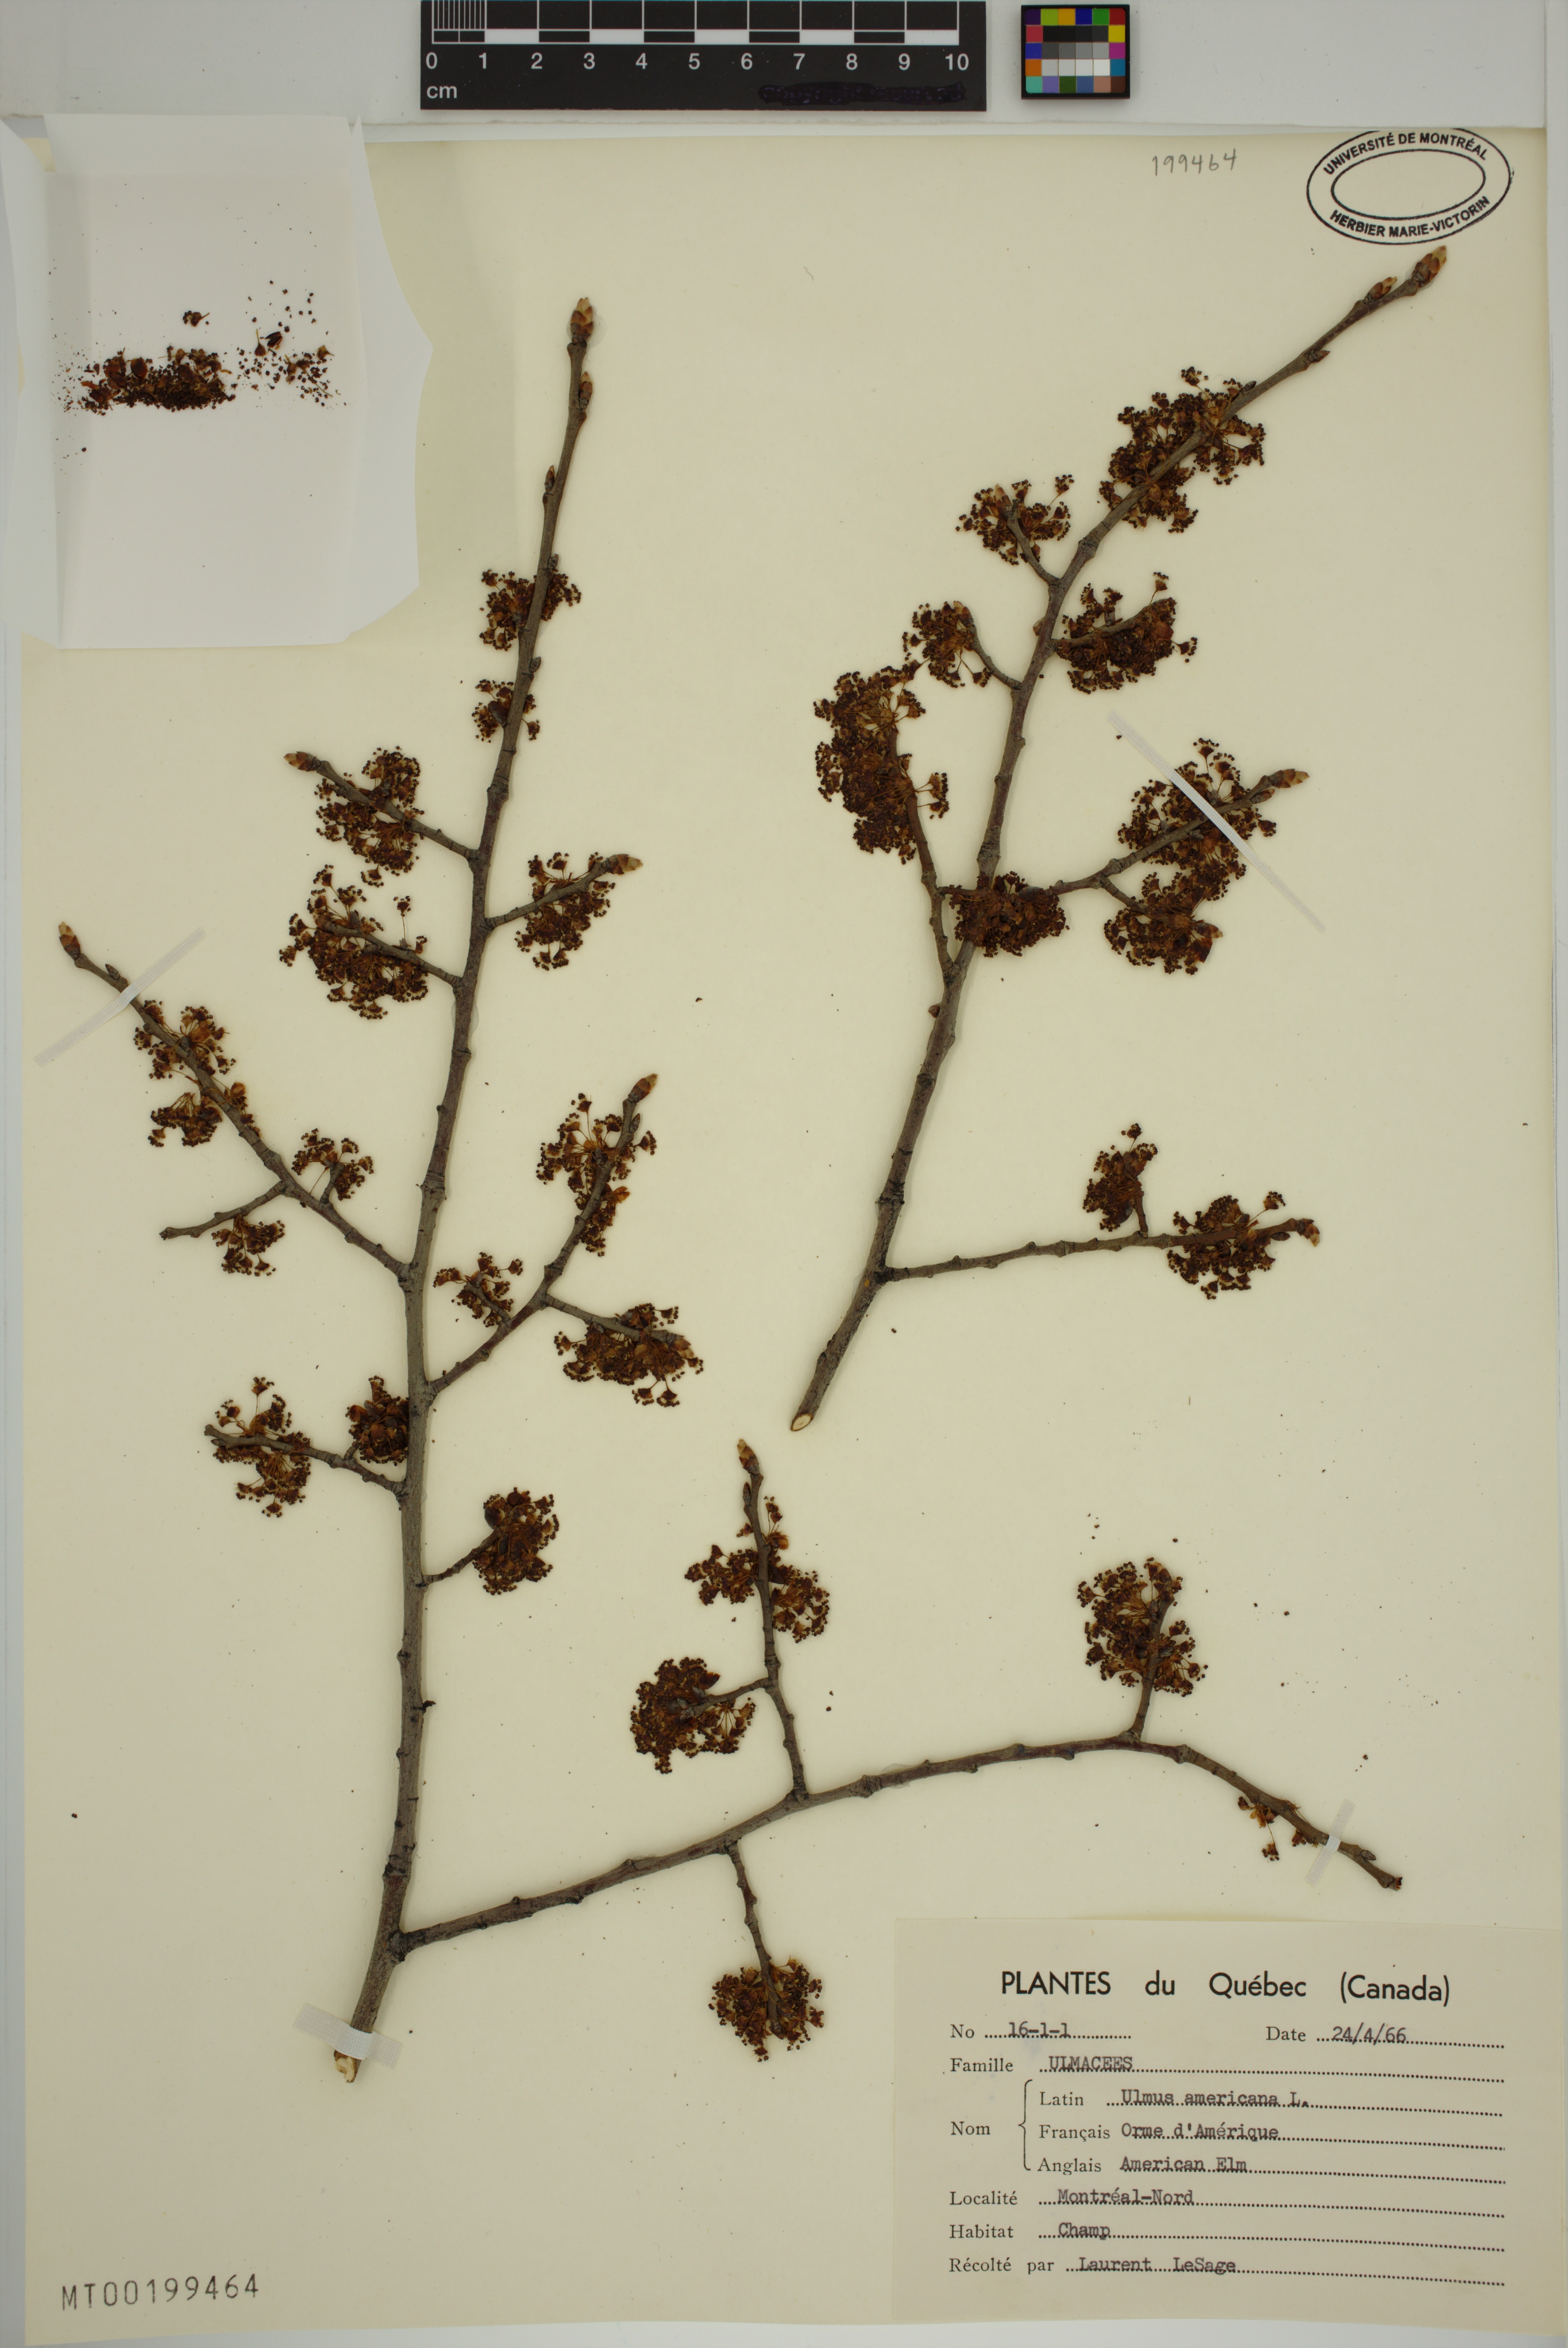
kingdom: Plantae
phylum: Tracheophyta
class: Magnoliopsida
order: Rosales
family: Ulmaceae
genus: Ulmus
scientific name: Ulmus americana
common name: American elm
